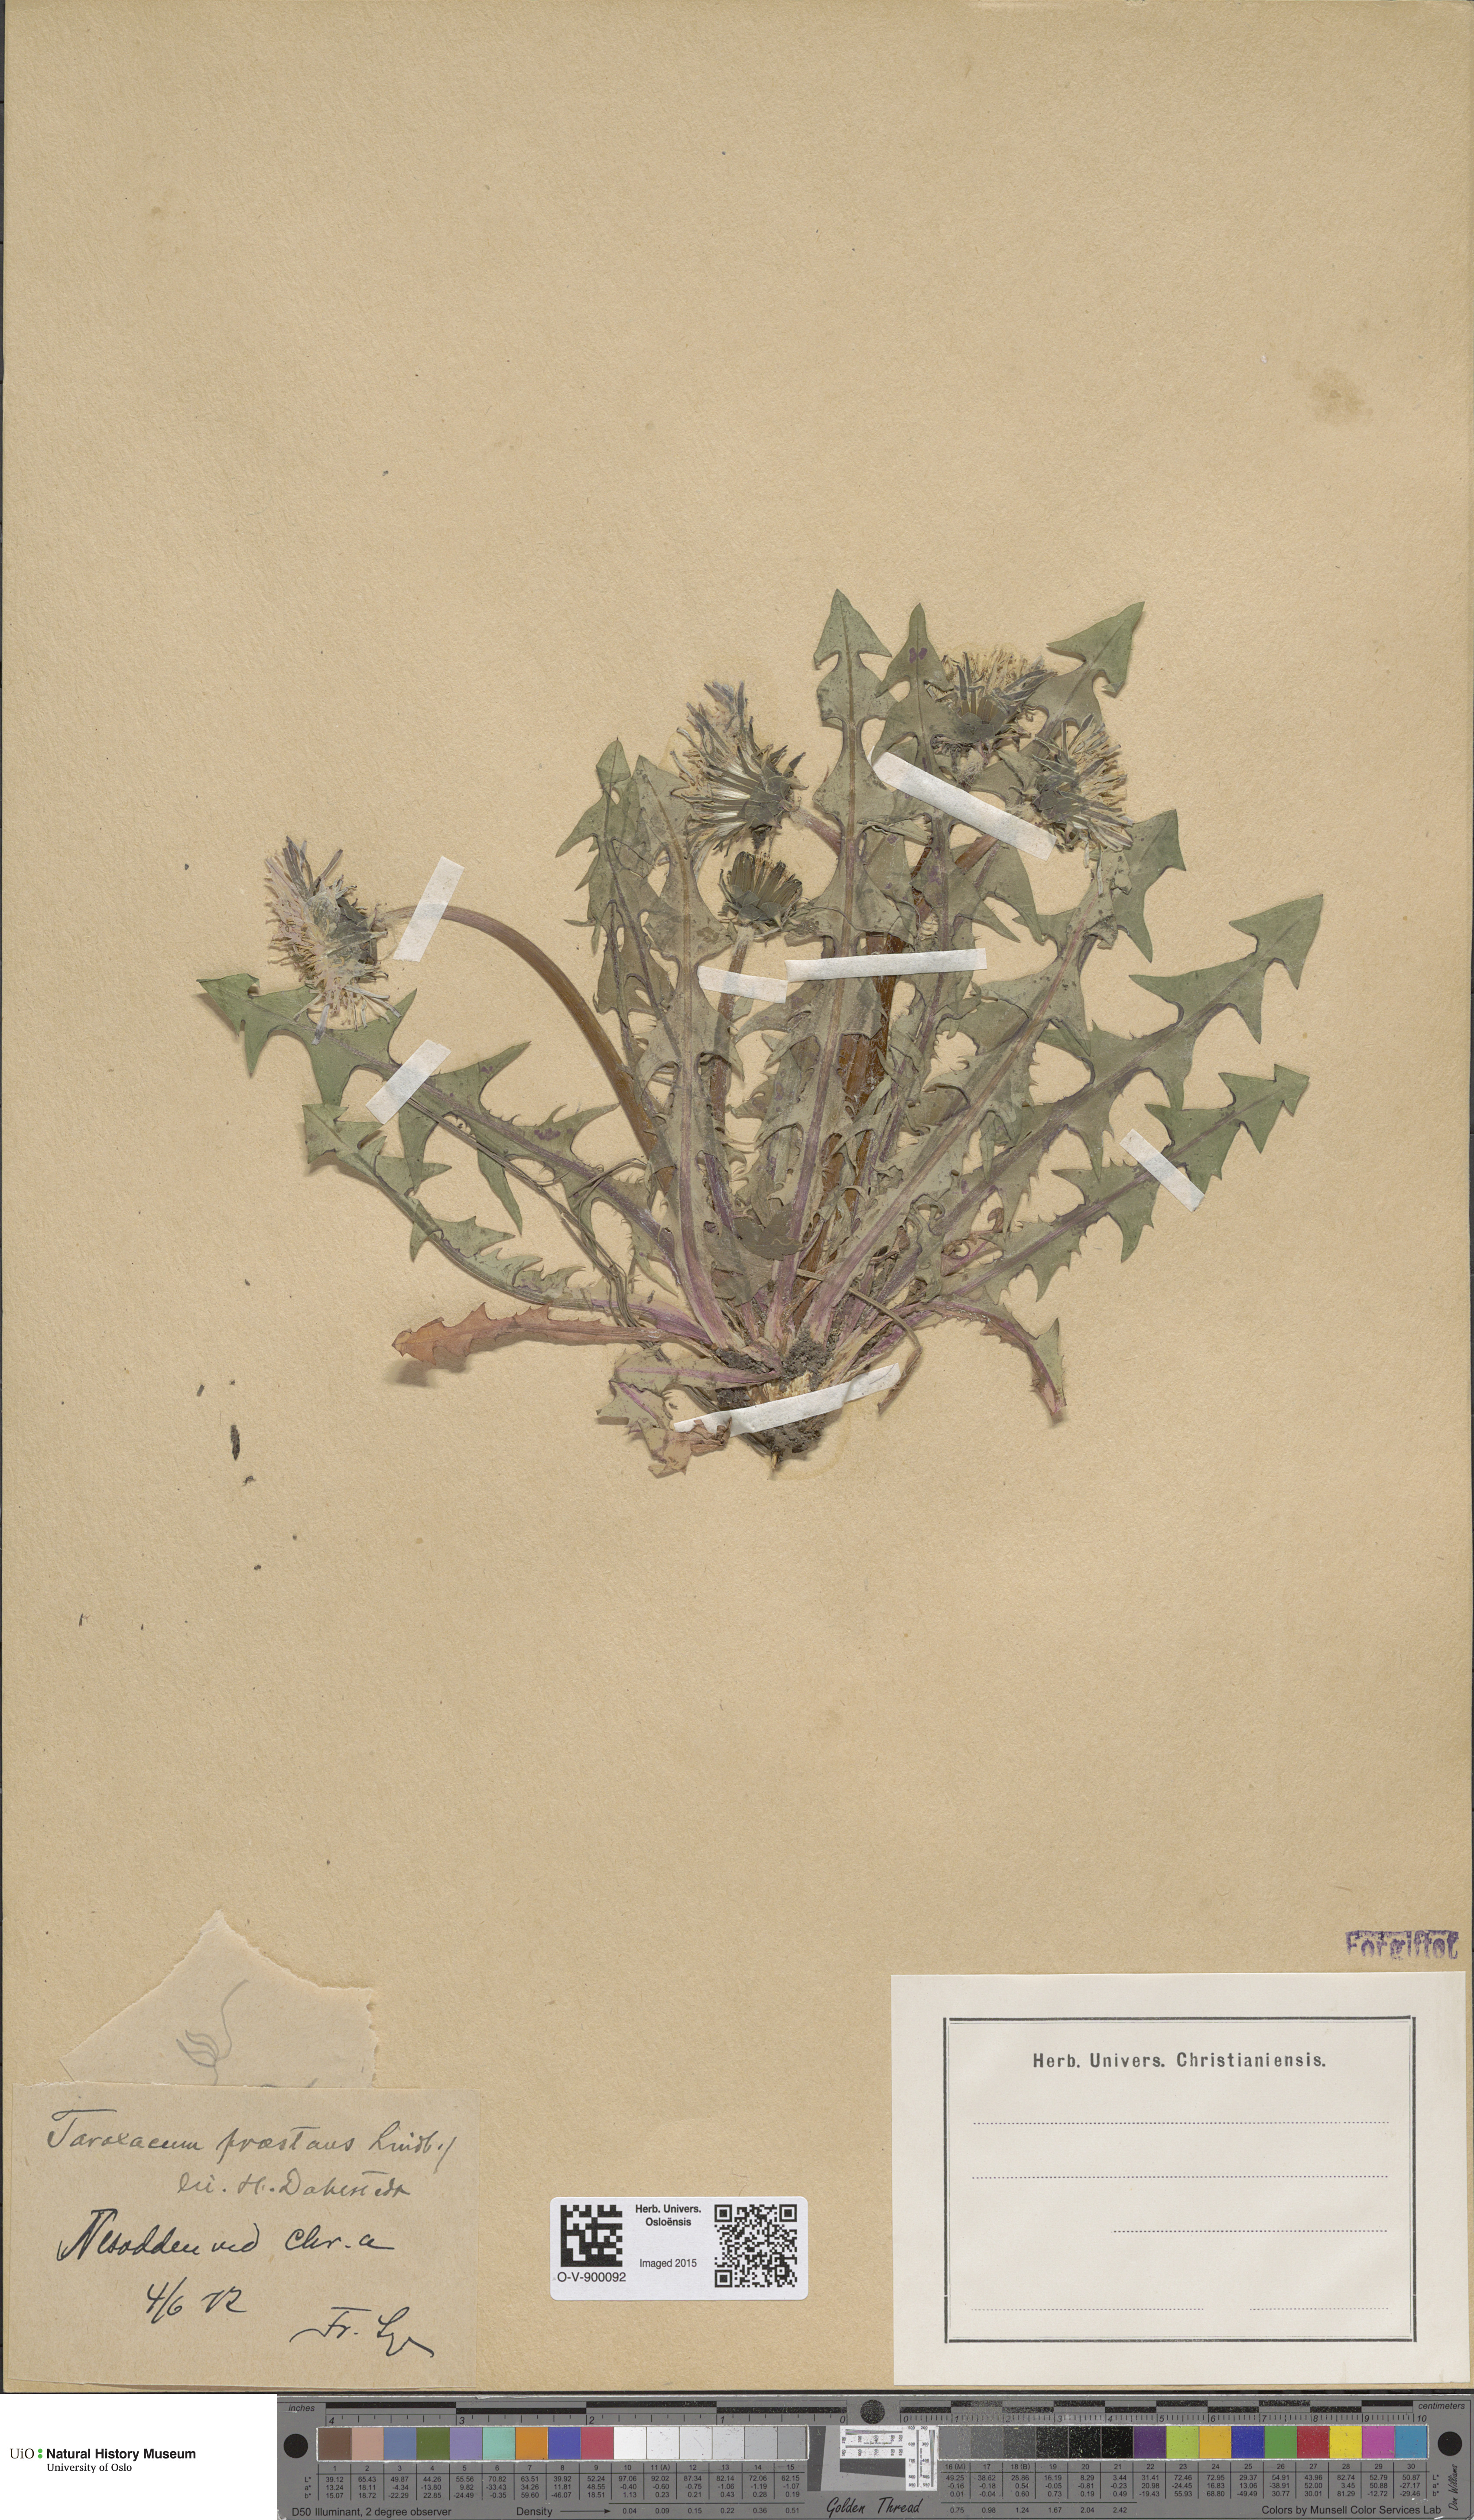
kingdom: Plantae
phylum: Tracheophyta
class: Magnoliopsida
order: Asterales
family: Asteraceae
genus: Taraxacum
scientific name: Taraxacum praestans
